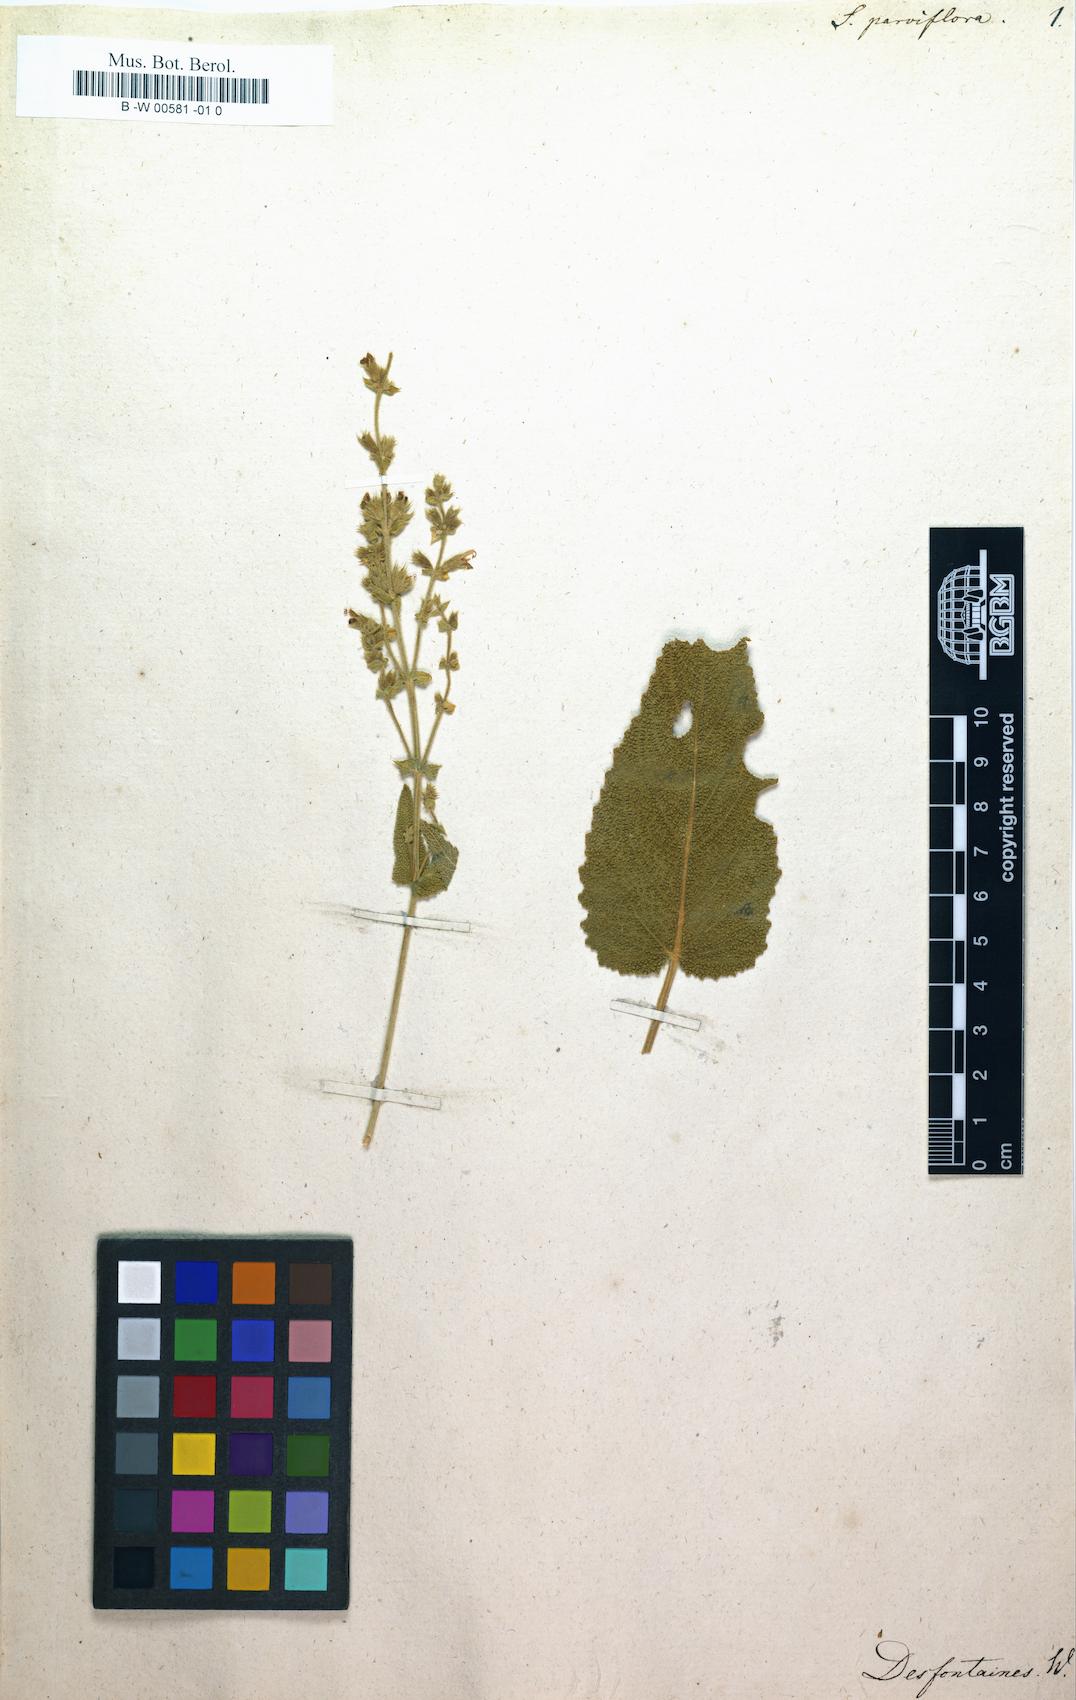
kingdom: Plantae
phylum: Tracheophyta
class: Magnoliopsida
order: Lamiales
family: Lamiaceae
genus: Salvia
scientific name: Salvia parviflora
